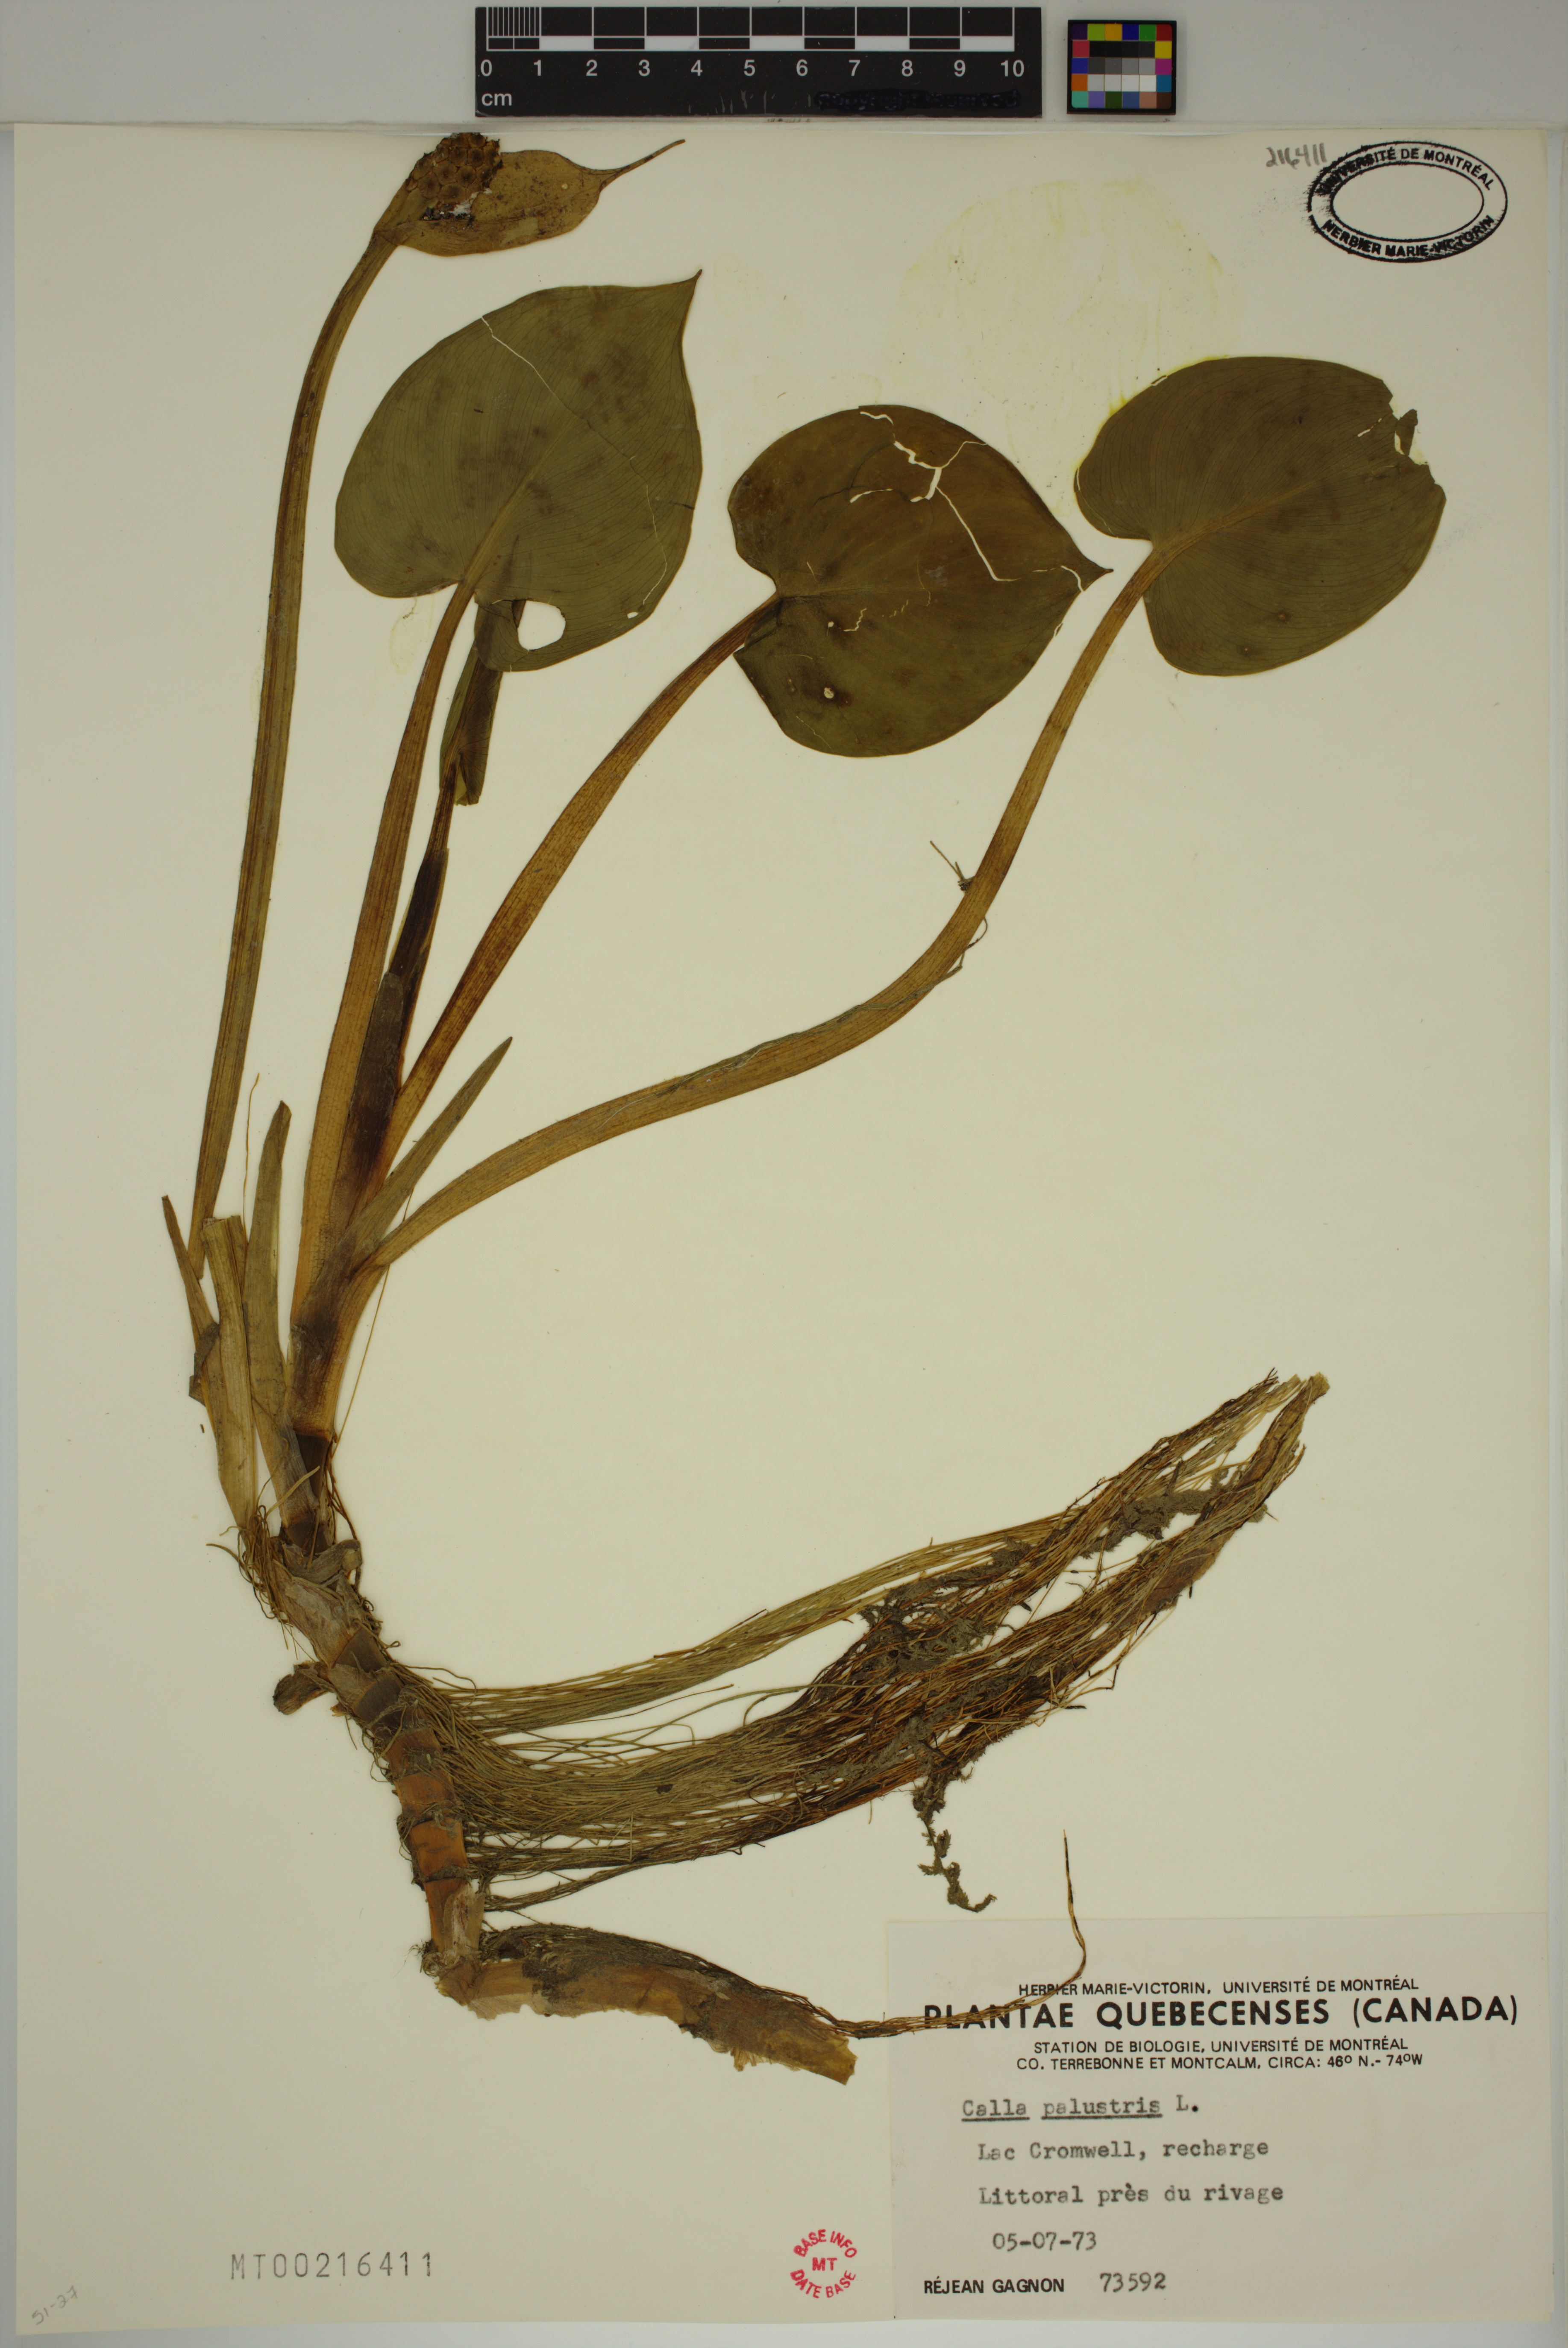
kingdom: Plantae
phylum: Tracheophyta
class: Liliopsida
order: Alismatales
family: Araceae
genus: Calla
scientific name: Calla palustris
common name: Bog arum
